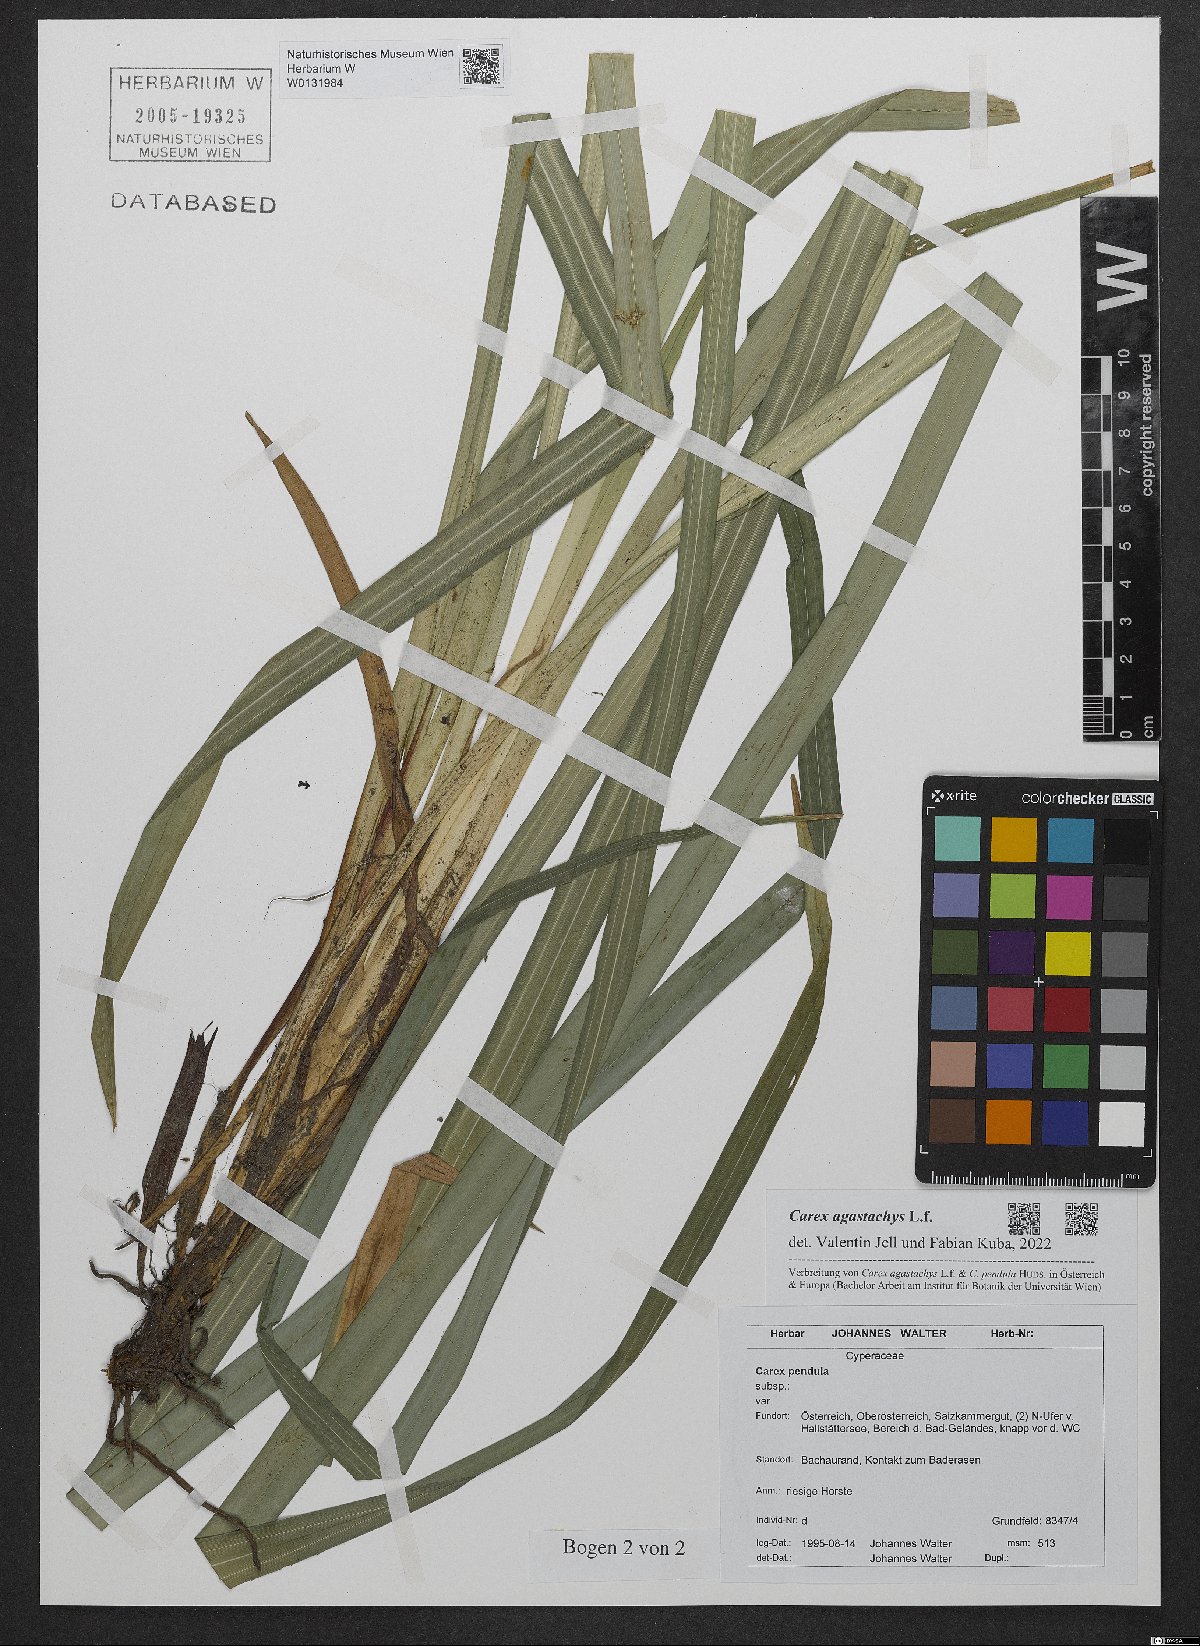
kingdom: Plantae
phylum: Tracheophyta
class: Liliopsida
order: Poales
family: Cyperaceae
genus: Carex
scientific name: Carex agastachys
